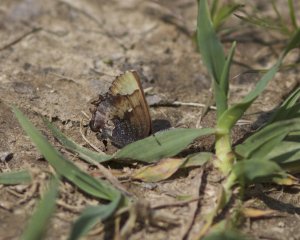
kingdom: Animalia
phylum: Arthropoda
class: Insecta
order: Lepidoptera
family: Lycaenidae
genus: Incisalia
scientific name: Incisalia henrici
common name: Henry's Elfin
